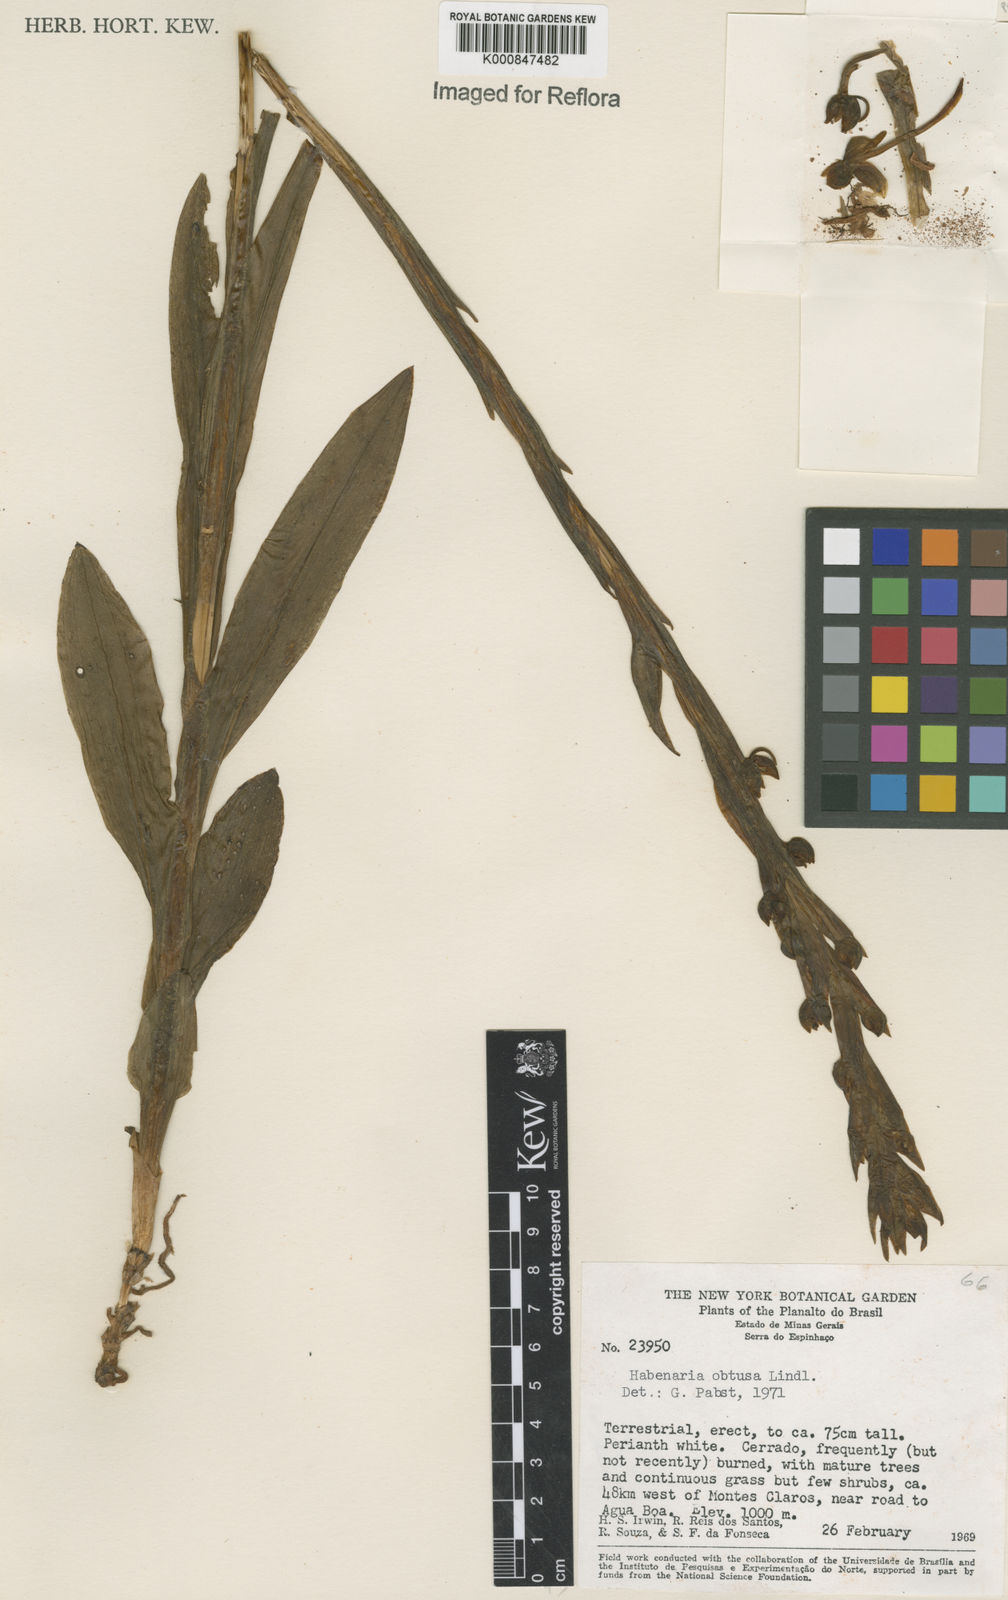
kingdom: Plantae
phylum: Tracheophyta
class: Liliopsida
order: Asparagales
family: Orchidaceae
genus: Habenaria
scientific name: Habenaria obtusa
